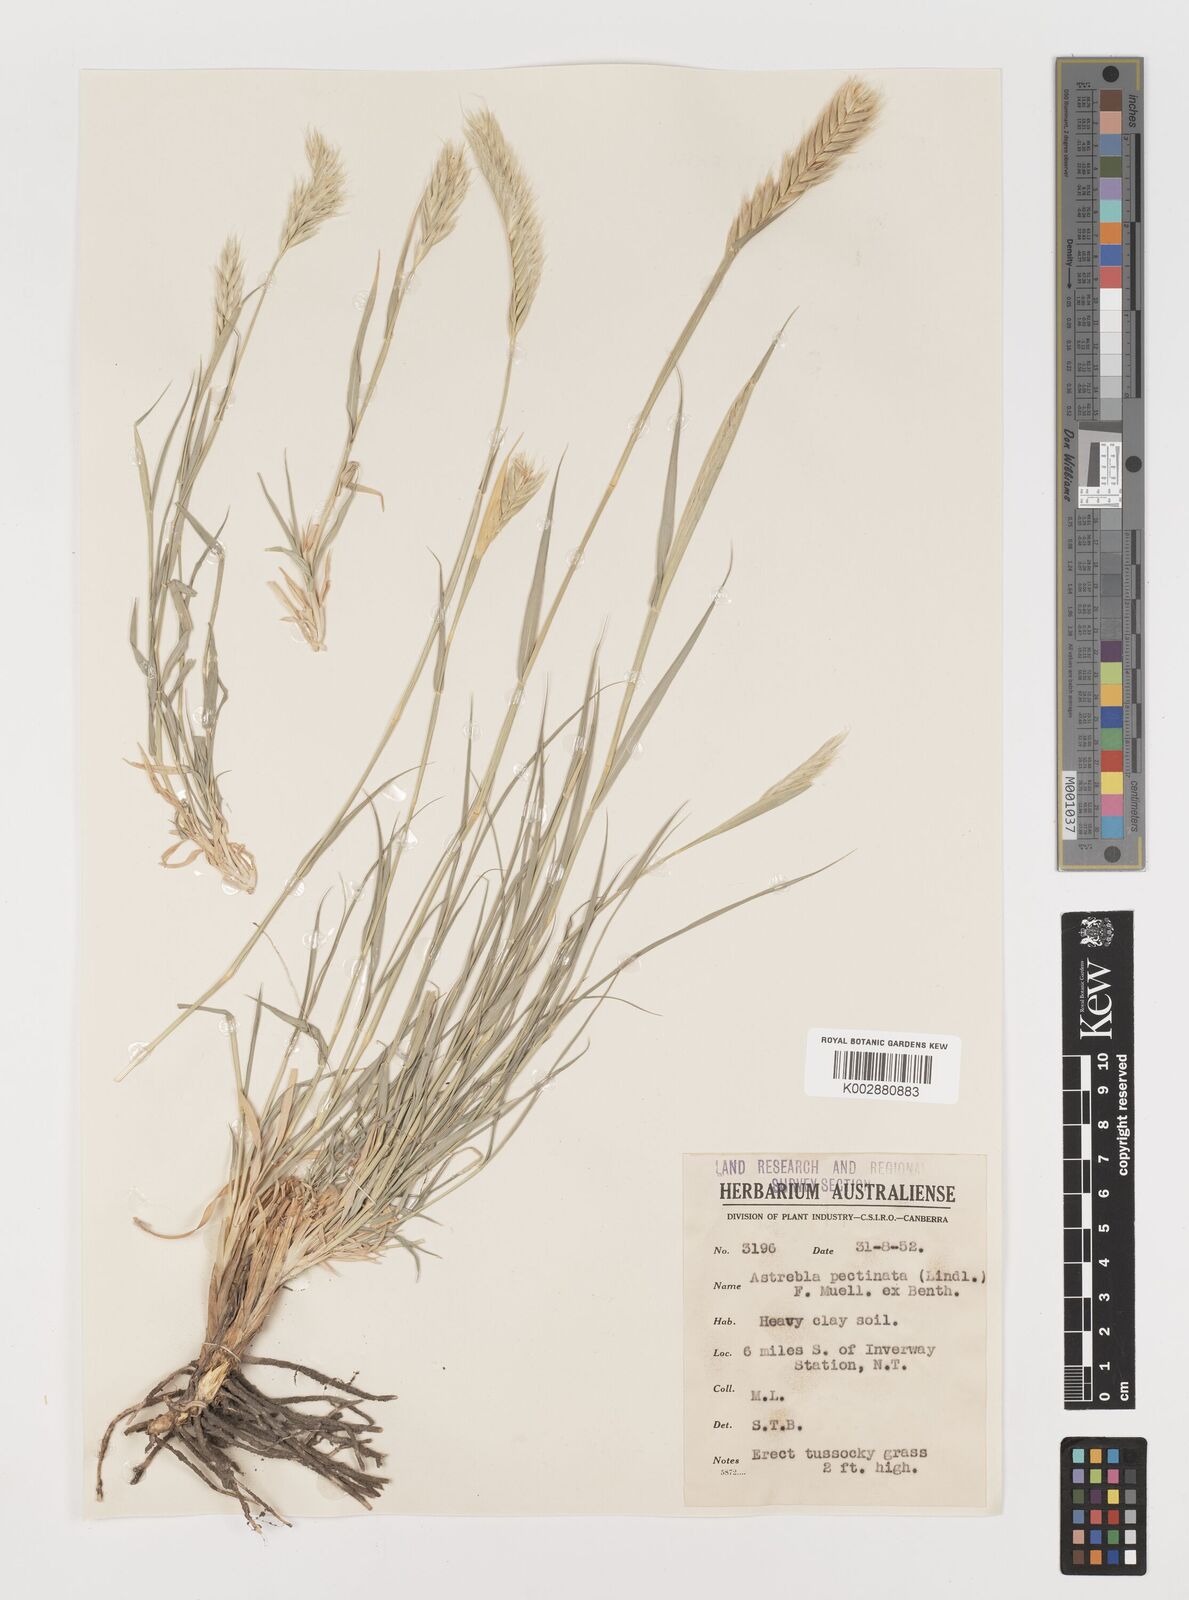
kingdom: Plantae
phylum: Tracheophyta
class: Liliopsida
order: Poales
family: Poaceae
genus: Astrebla
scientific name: Astrebla pectinata
